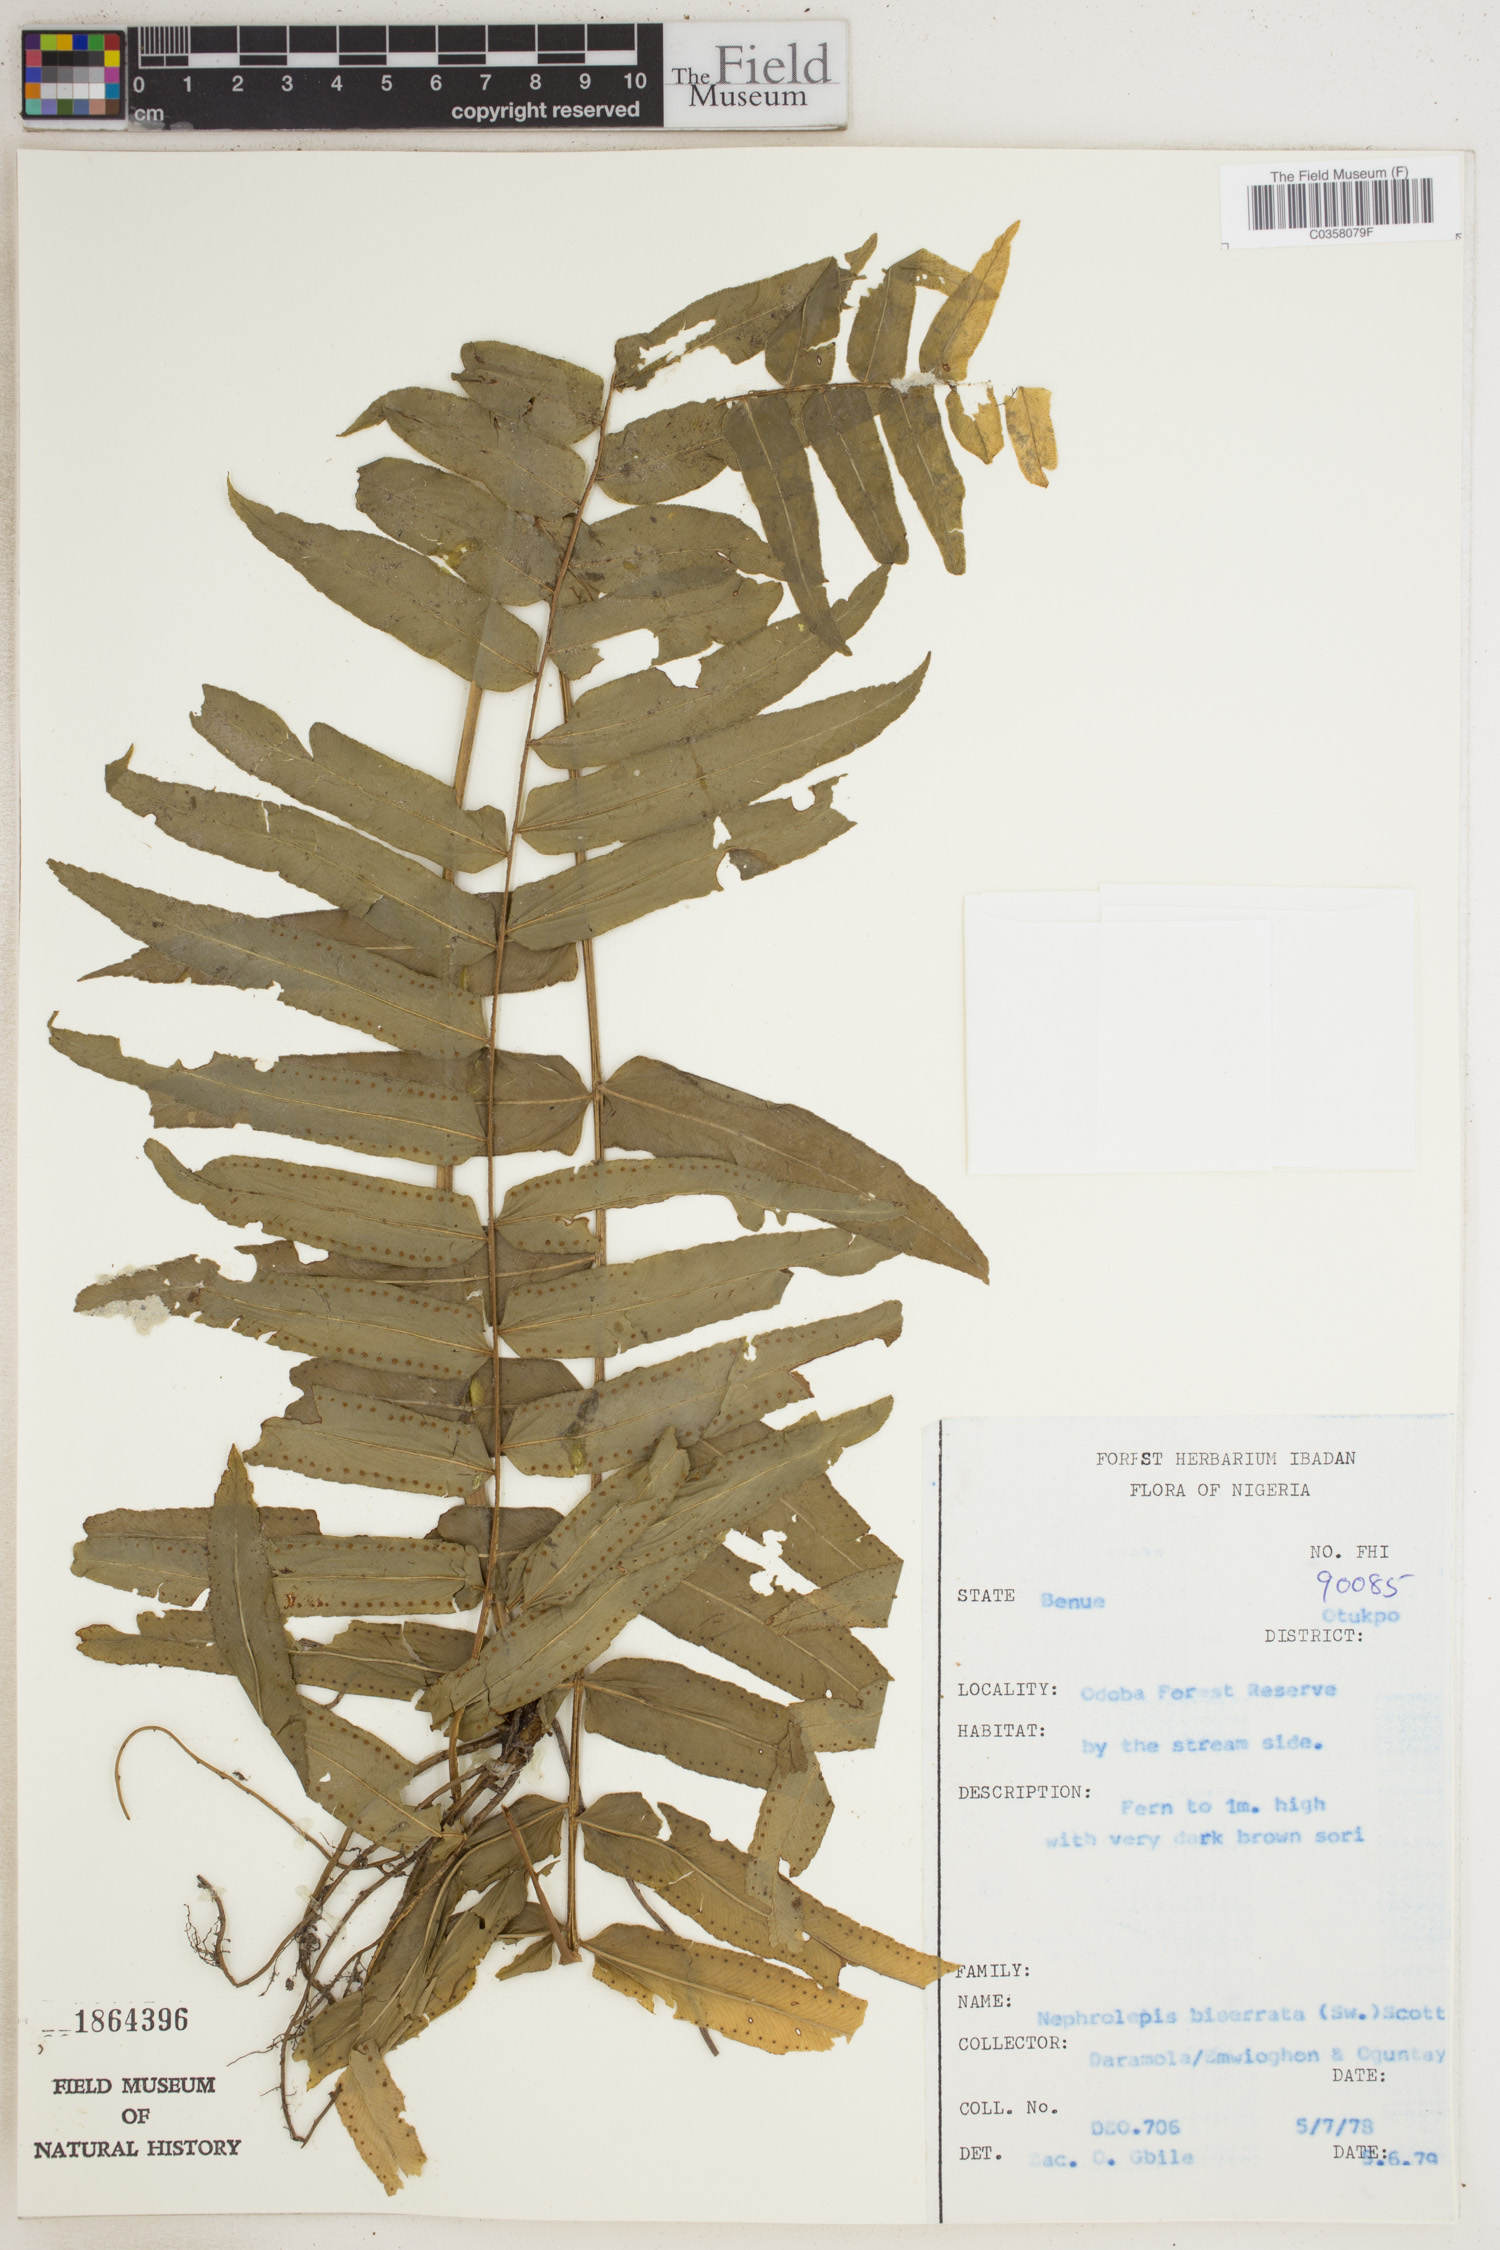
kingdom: Plantae
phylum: Tracheophyta
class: Polypodiopsida
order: Polypodiales
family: Nephrolepidaceae
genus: Nephrolepis
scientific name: Nephrolepis biserrata
